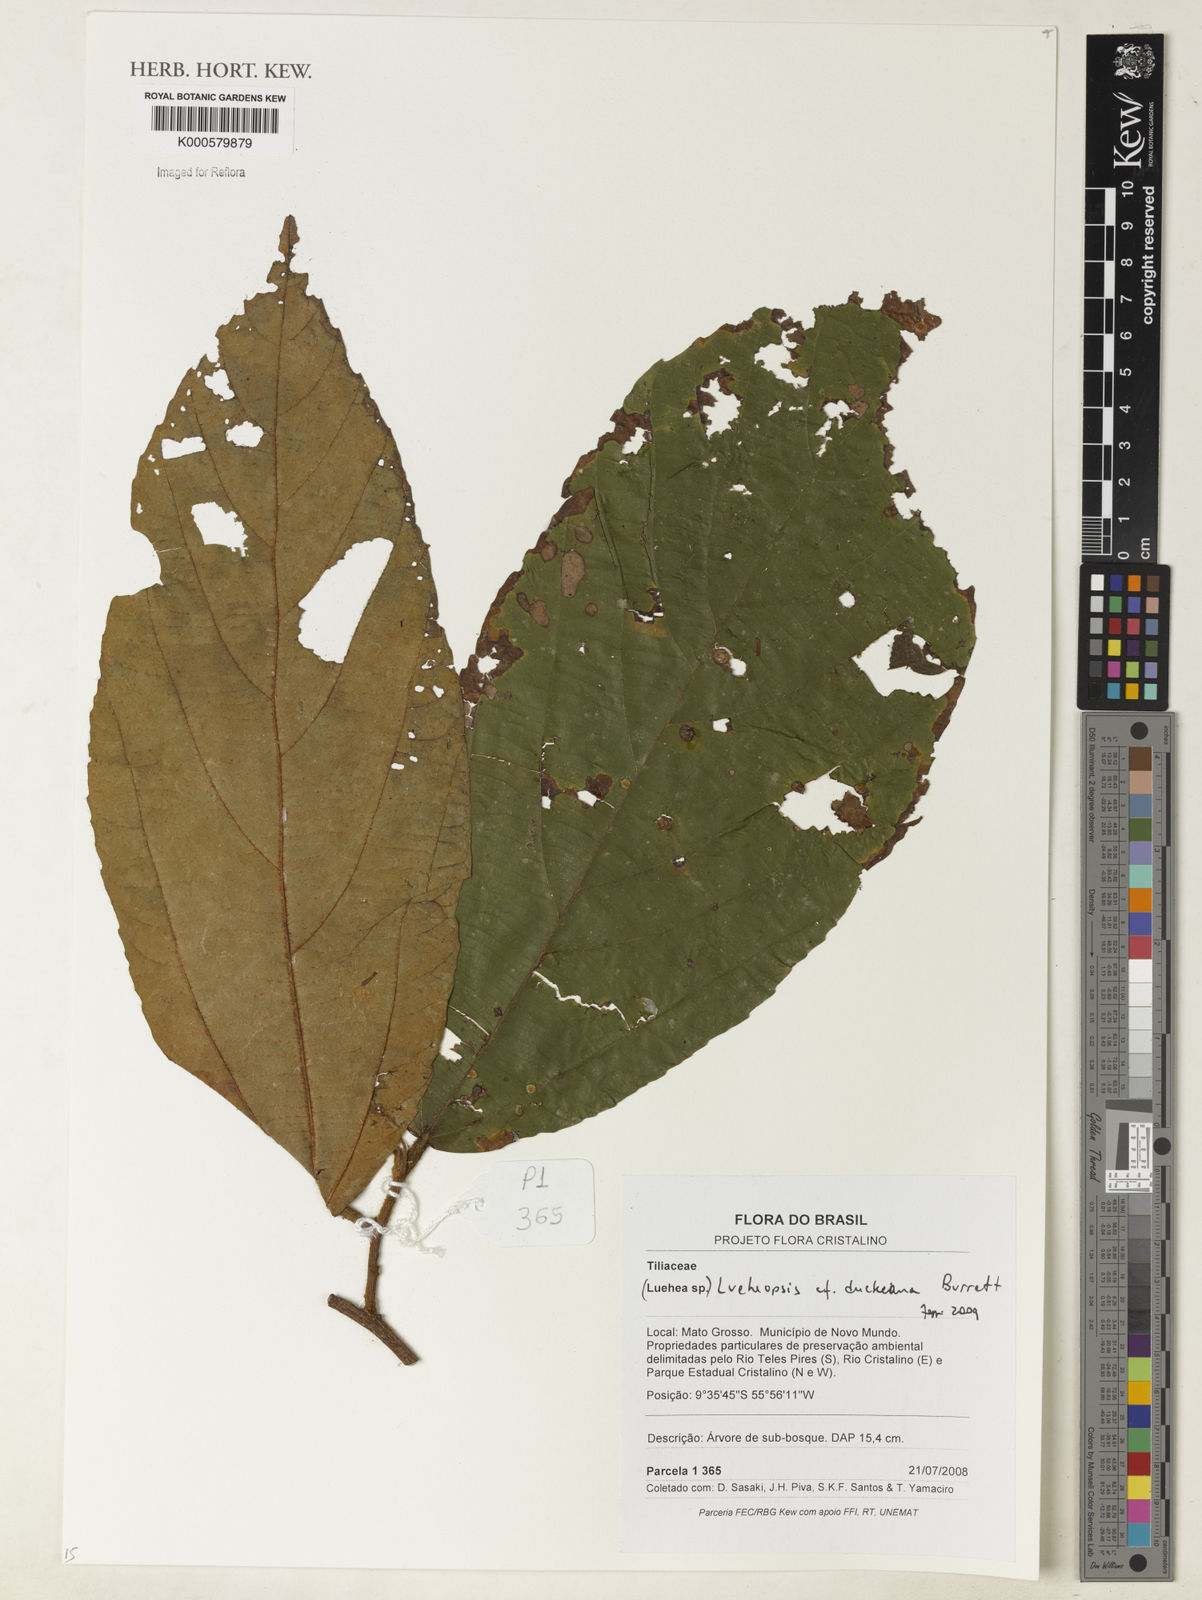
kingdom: Plantae
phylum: Tracheophyta
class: Magnoliopsida
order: Malvales
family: Malvaceae
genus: Lueheopsis
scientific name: Lueheopsis duckeana
